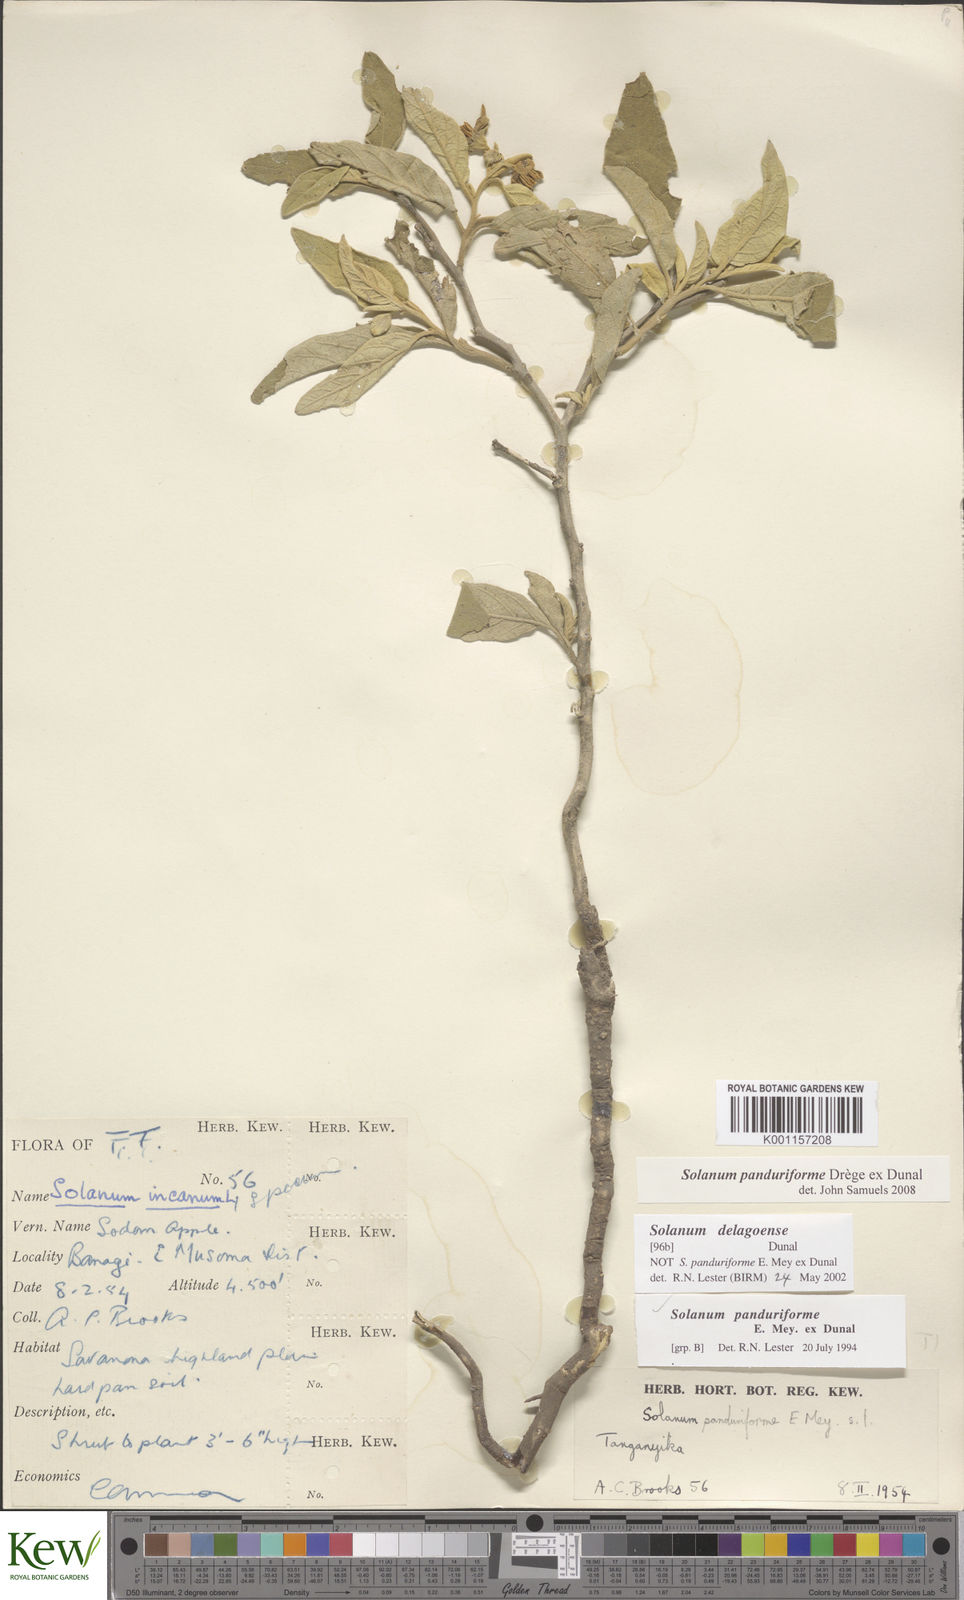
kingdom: Plantae
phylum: Tracheophyta
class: Magnoliopsida
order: Solanales
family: Solanaceae
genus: Solanum
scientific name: Solanum campylacanthum
